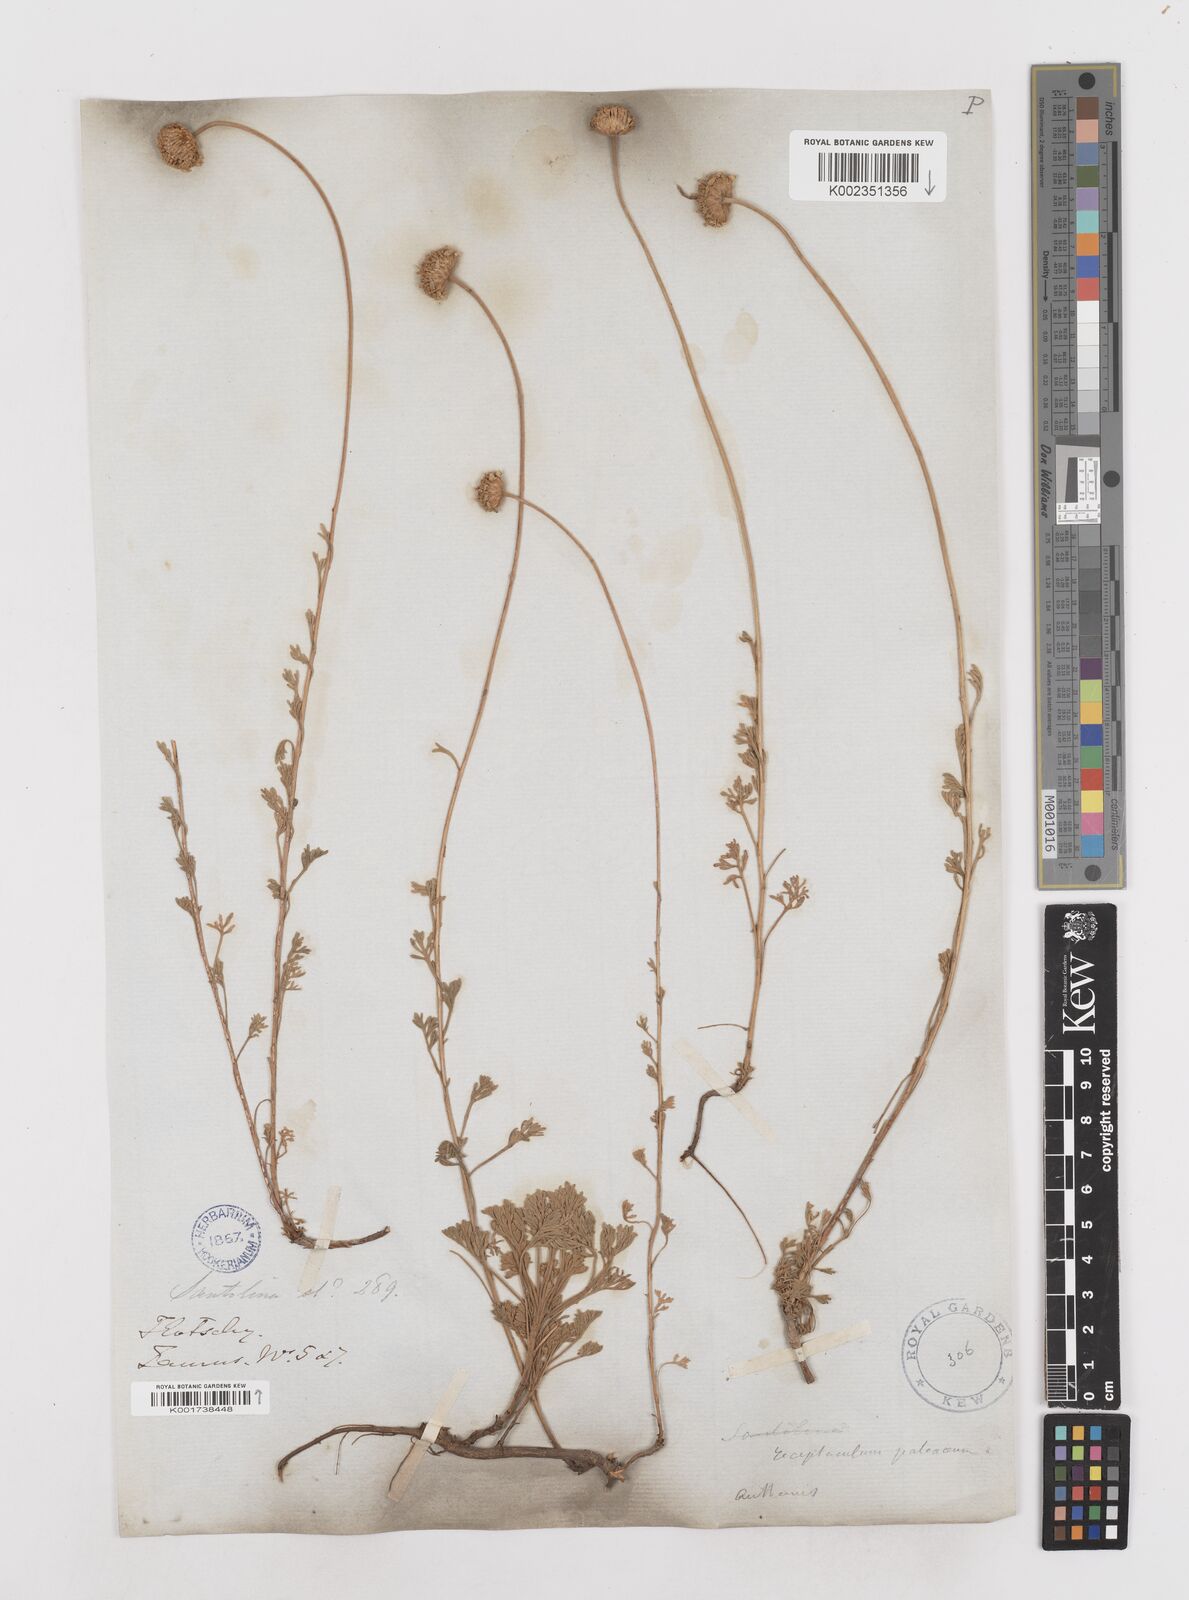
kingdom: Plantae
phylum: Tracheophyta
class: Magnoliopsida
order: Asterales
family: Asteraceae
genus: Anthemis
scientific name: Anthemis kotschyana
